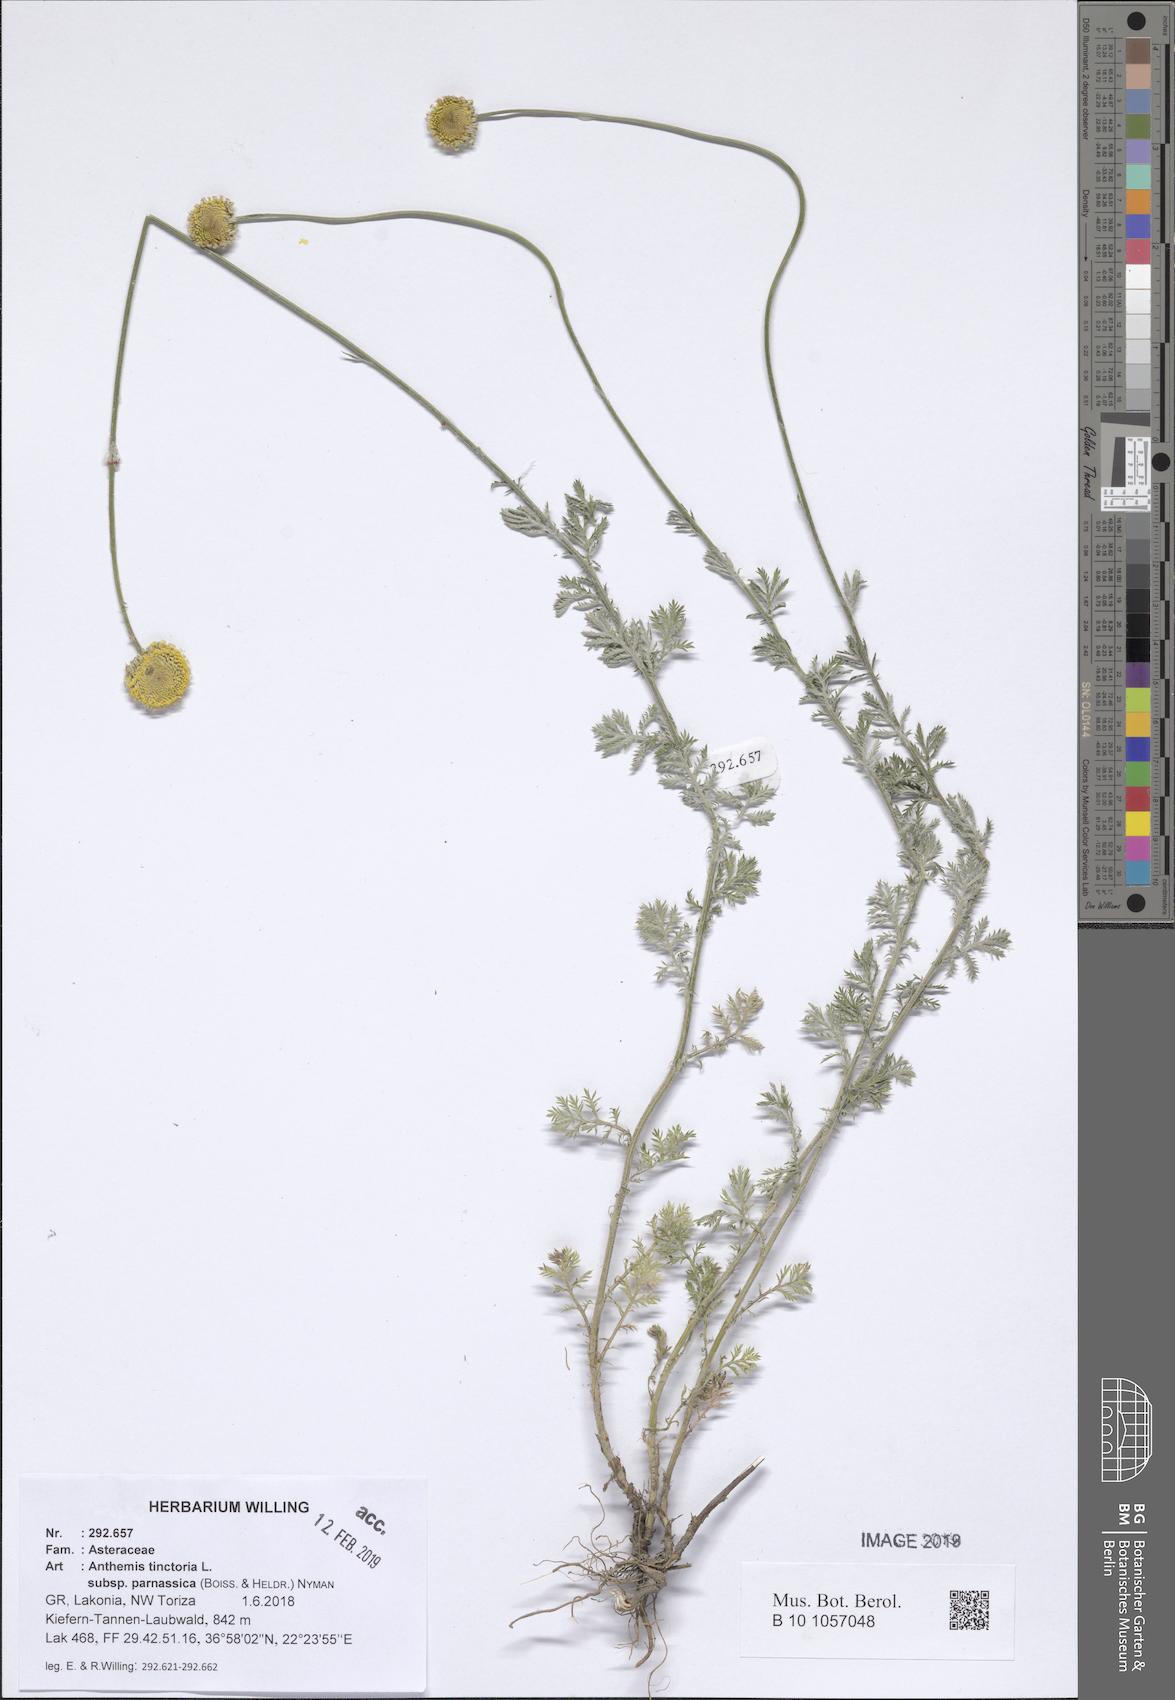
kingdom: Plantae
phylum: Tracheophyta
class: Magnoliopsida
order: Asterales
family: Asteraceae
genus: Cota
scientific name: Cota tinctoria
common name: Golden chamomile
